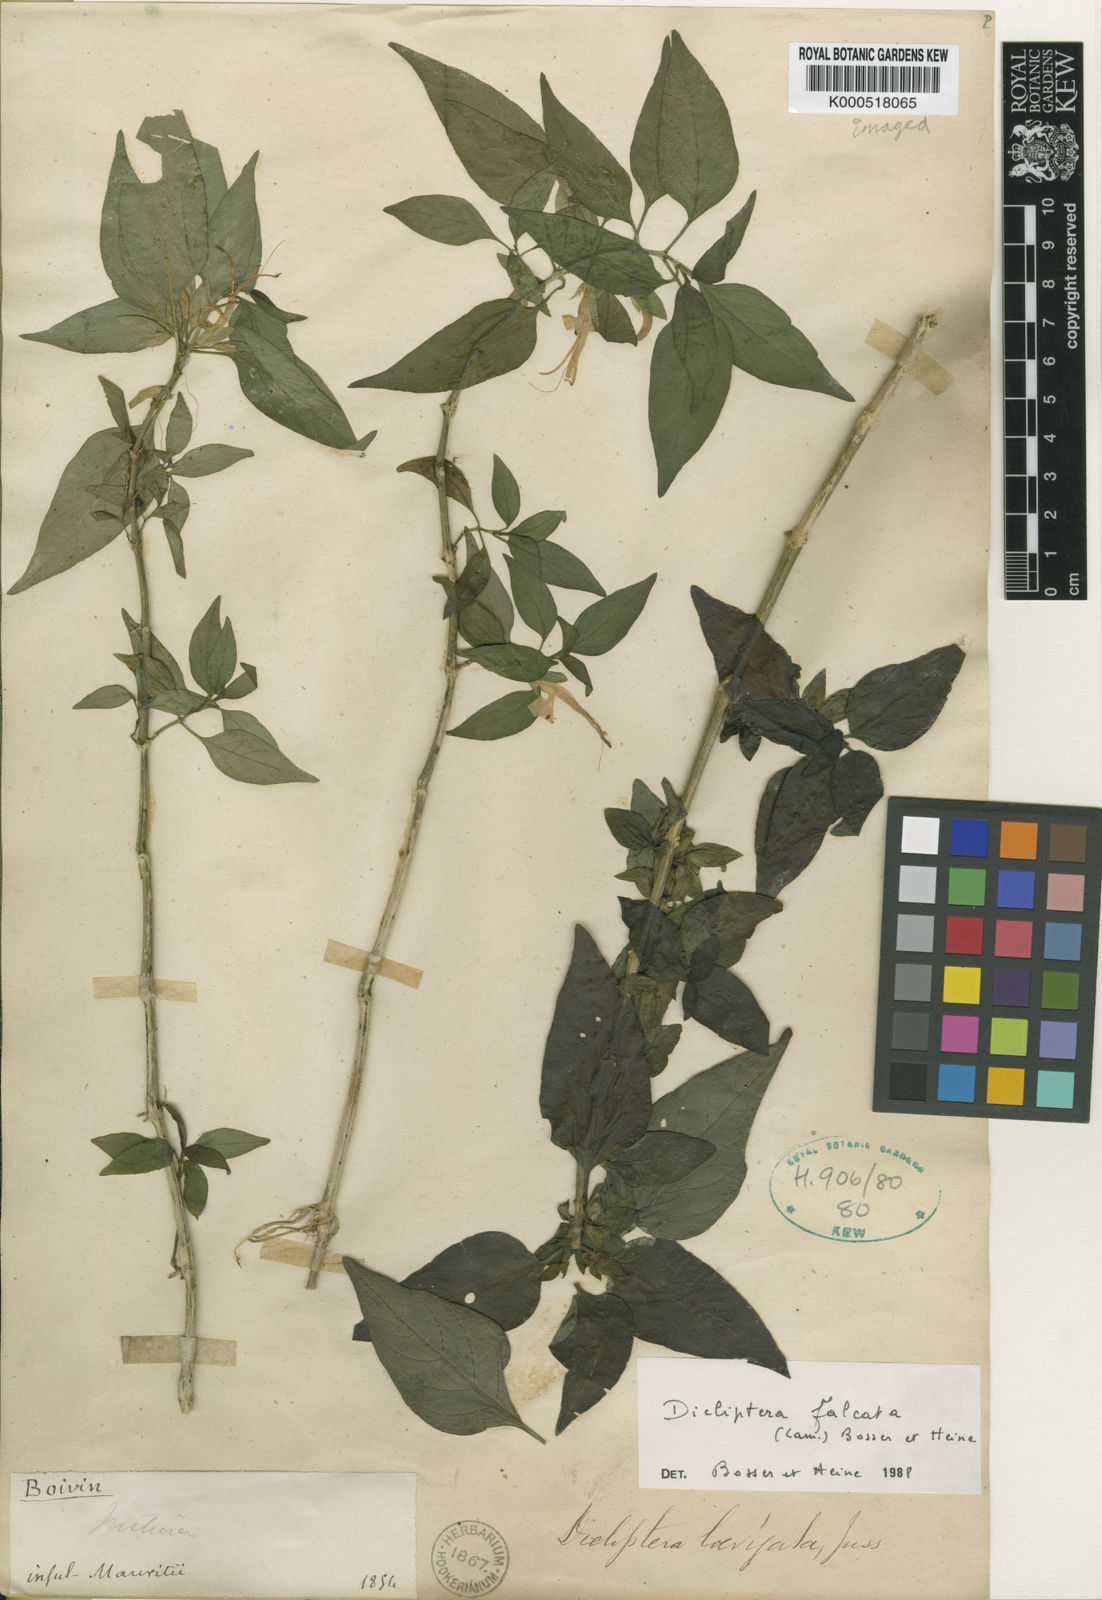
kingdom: Plantae
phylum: Tracheophyta
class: Magnoliopsida
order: Lamiales
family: Acanthaceae
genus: Dicliptera
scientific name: Dicliptera falcata
